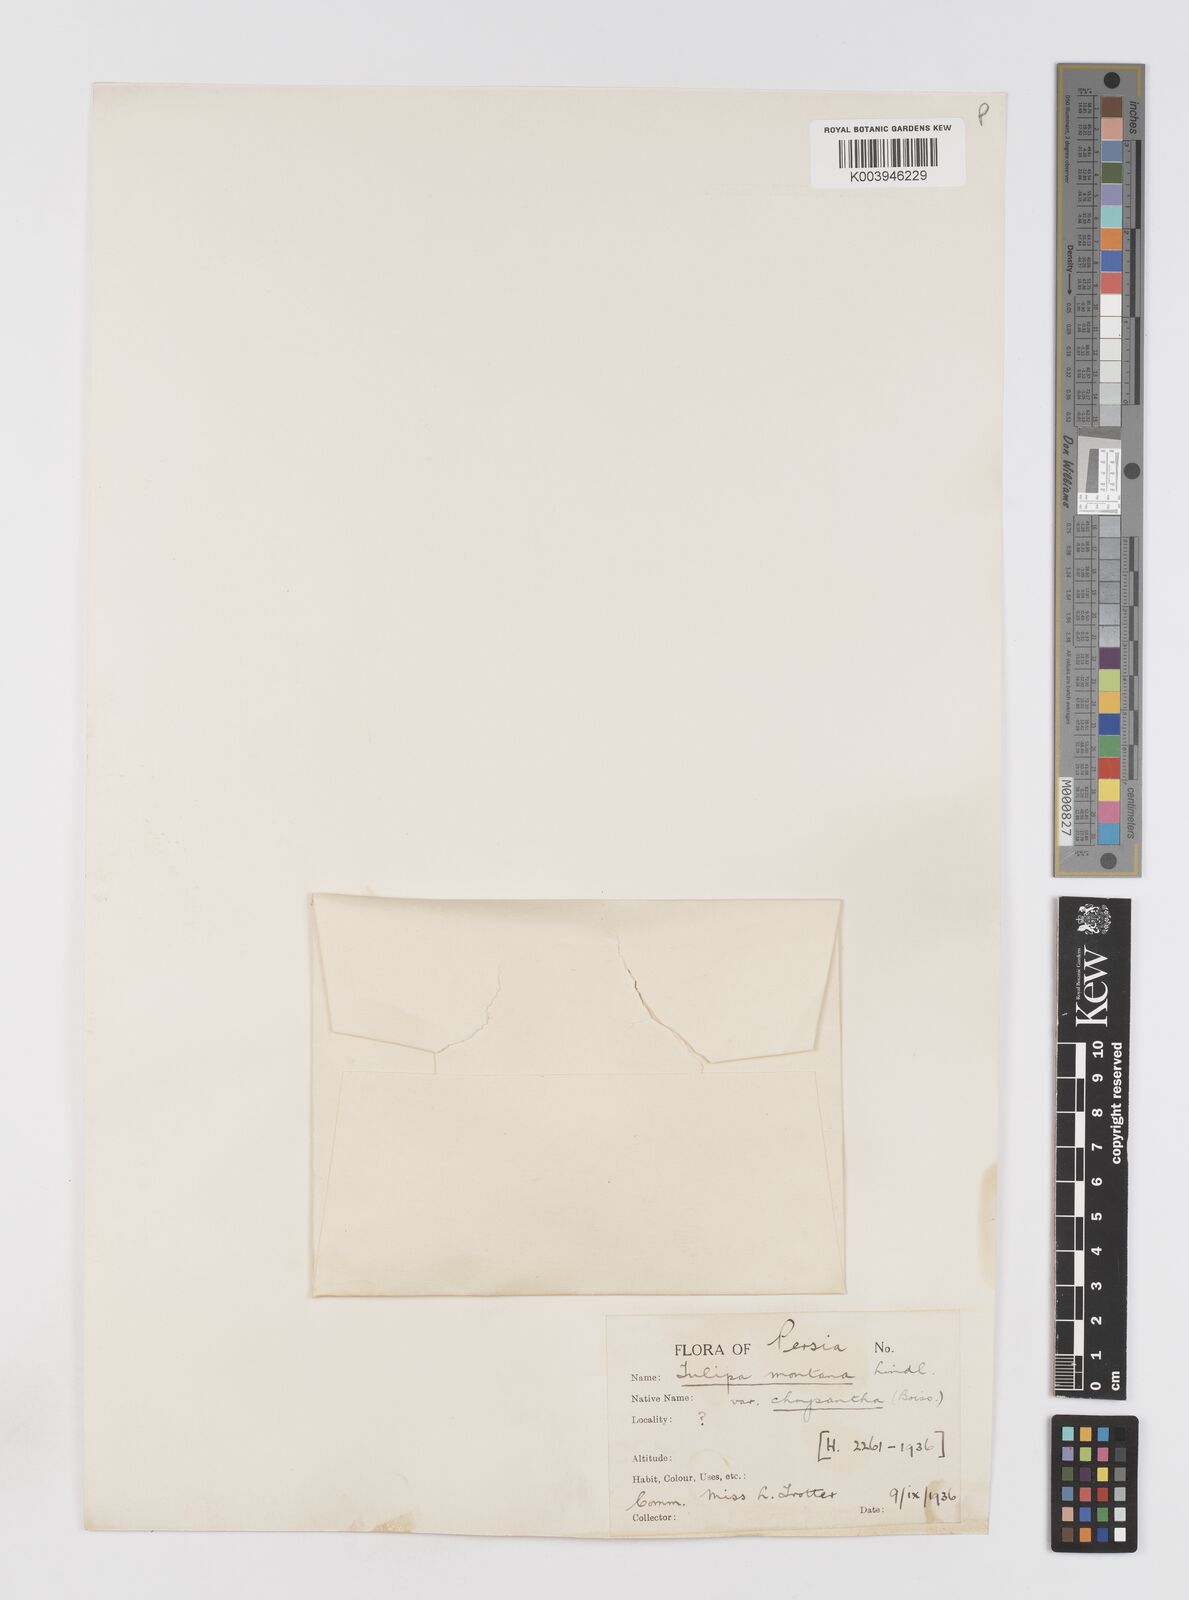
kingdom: Plantae
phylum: Tracheophyta
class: Liliopsida
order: Liliales
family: Liliaceae
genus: Tulipa
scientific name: Tulipa montana
